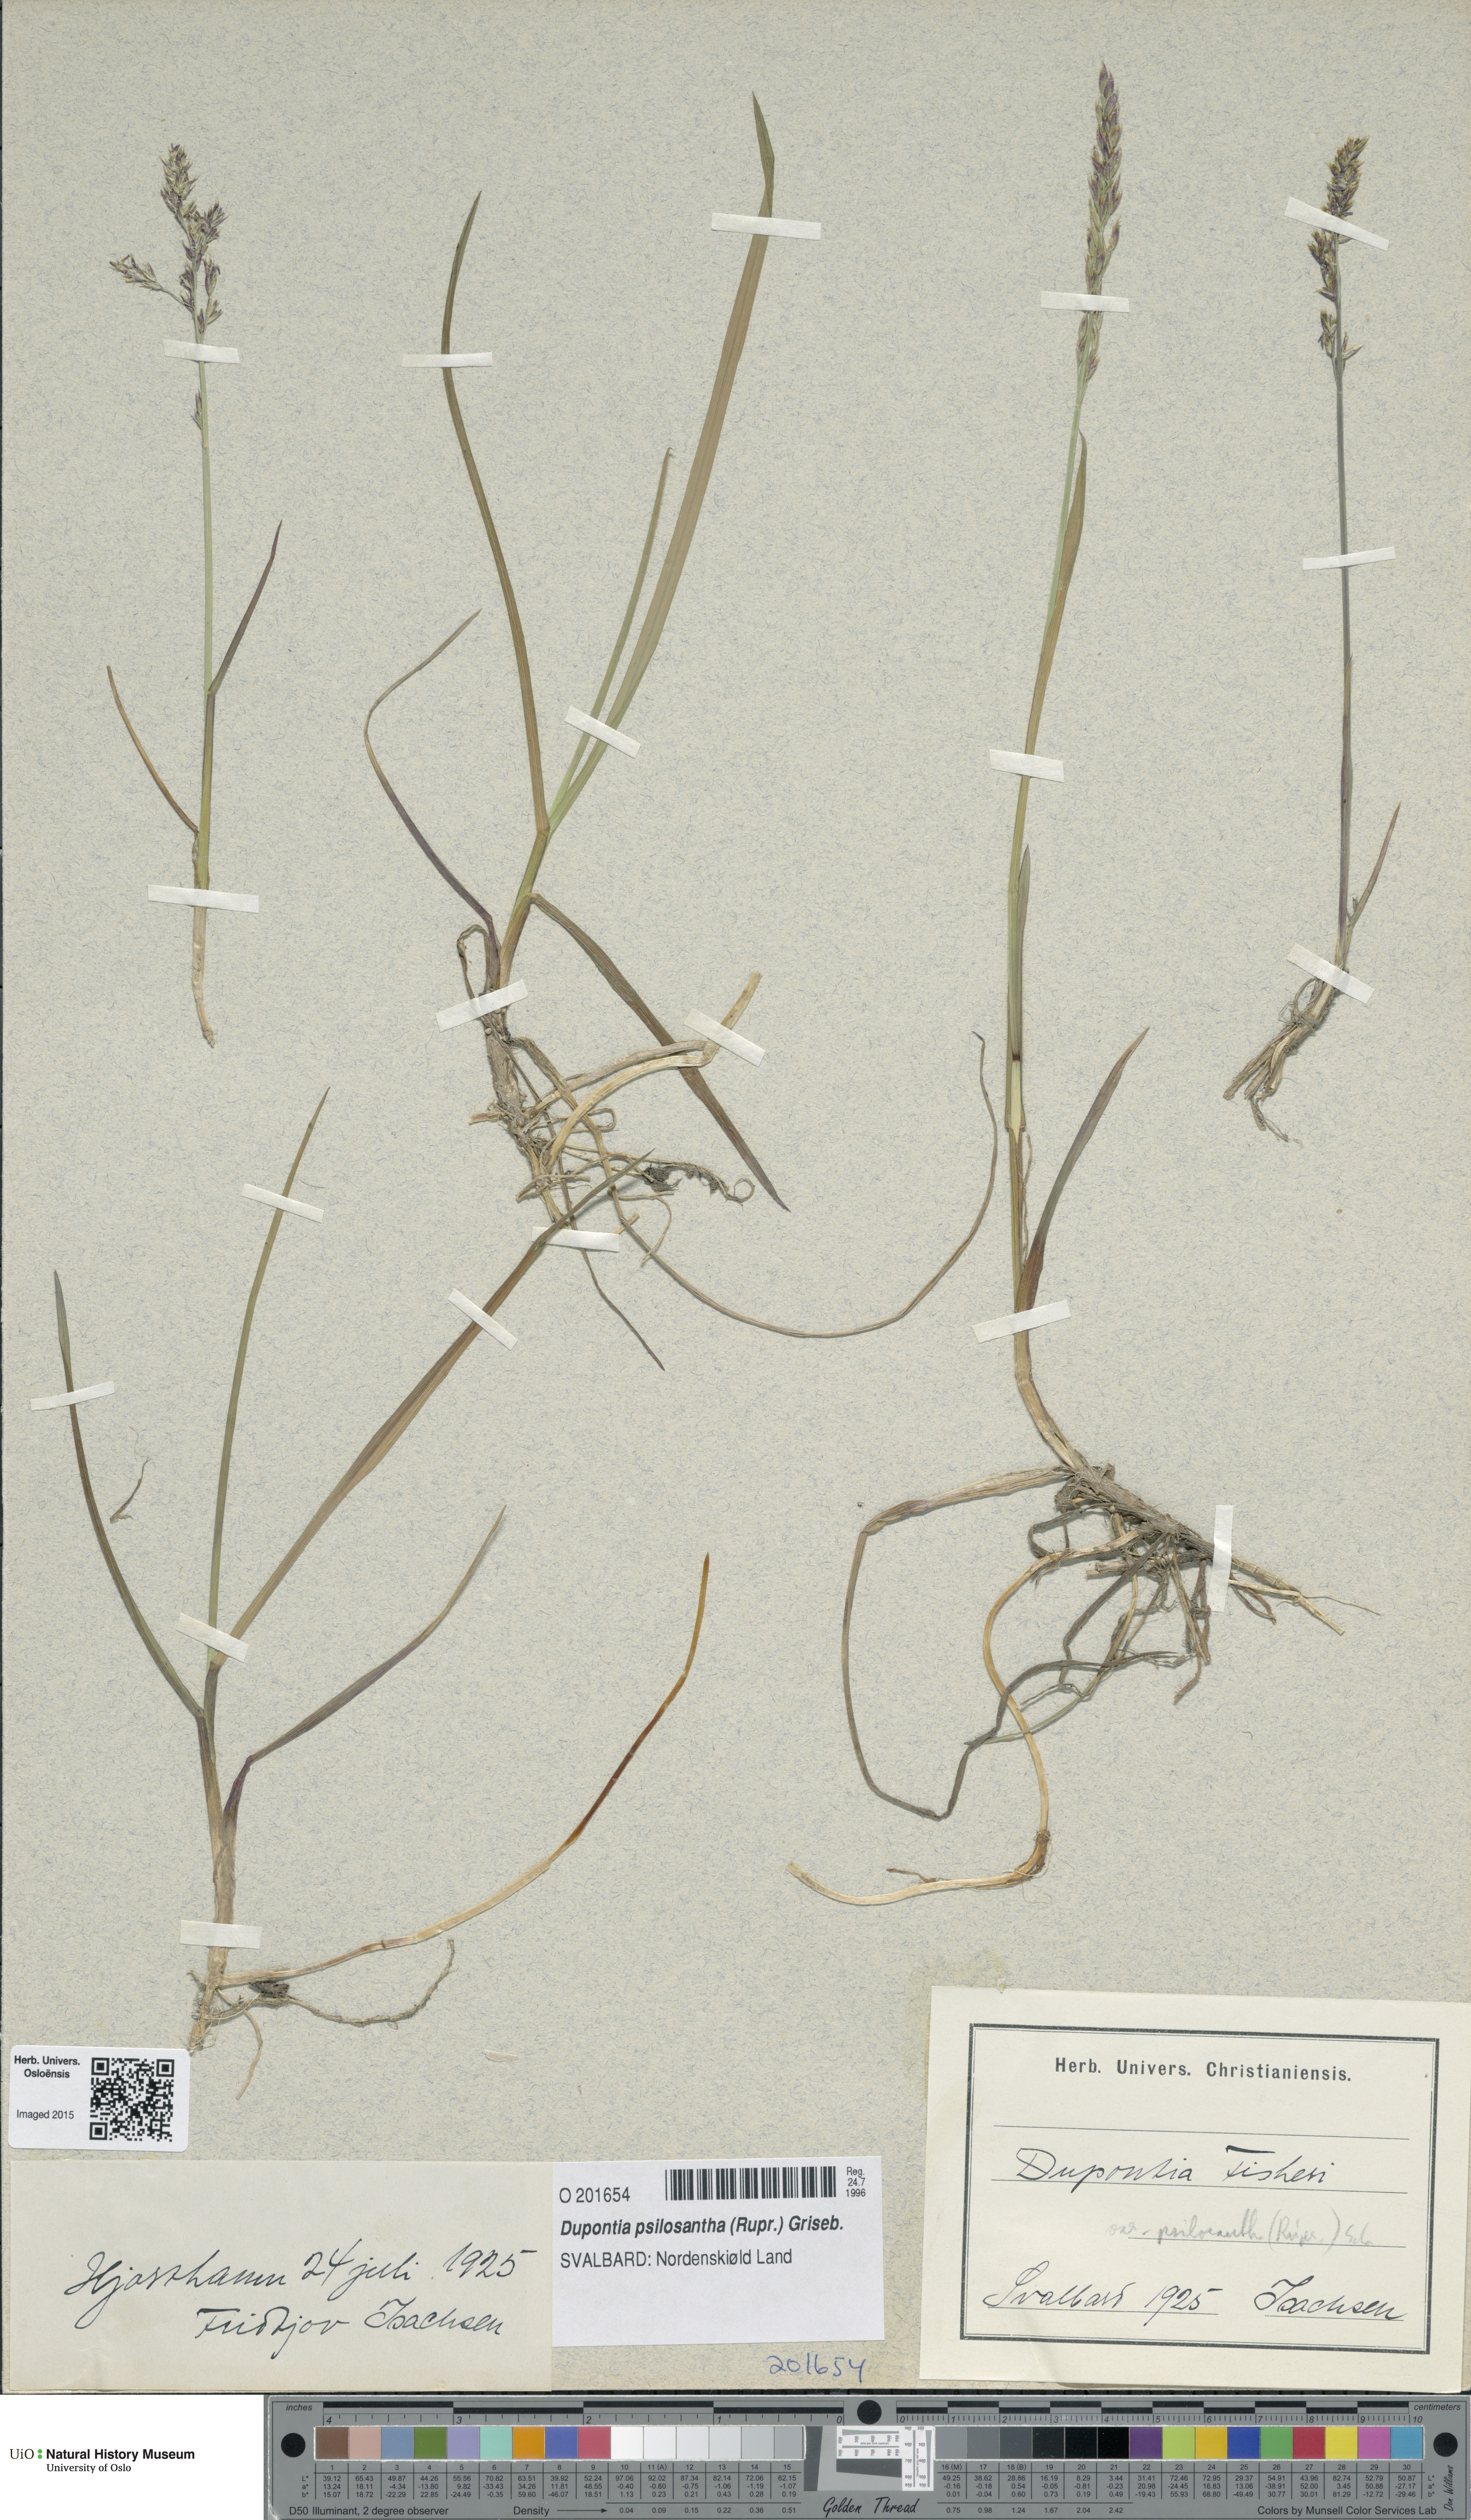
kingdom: Plantae
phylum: Tracheophyta
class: Liliopsida
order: Poales
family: Poaceae
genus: Dupontia
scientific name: Dupontia fisheri
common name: Tundra grass
